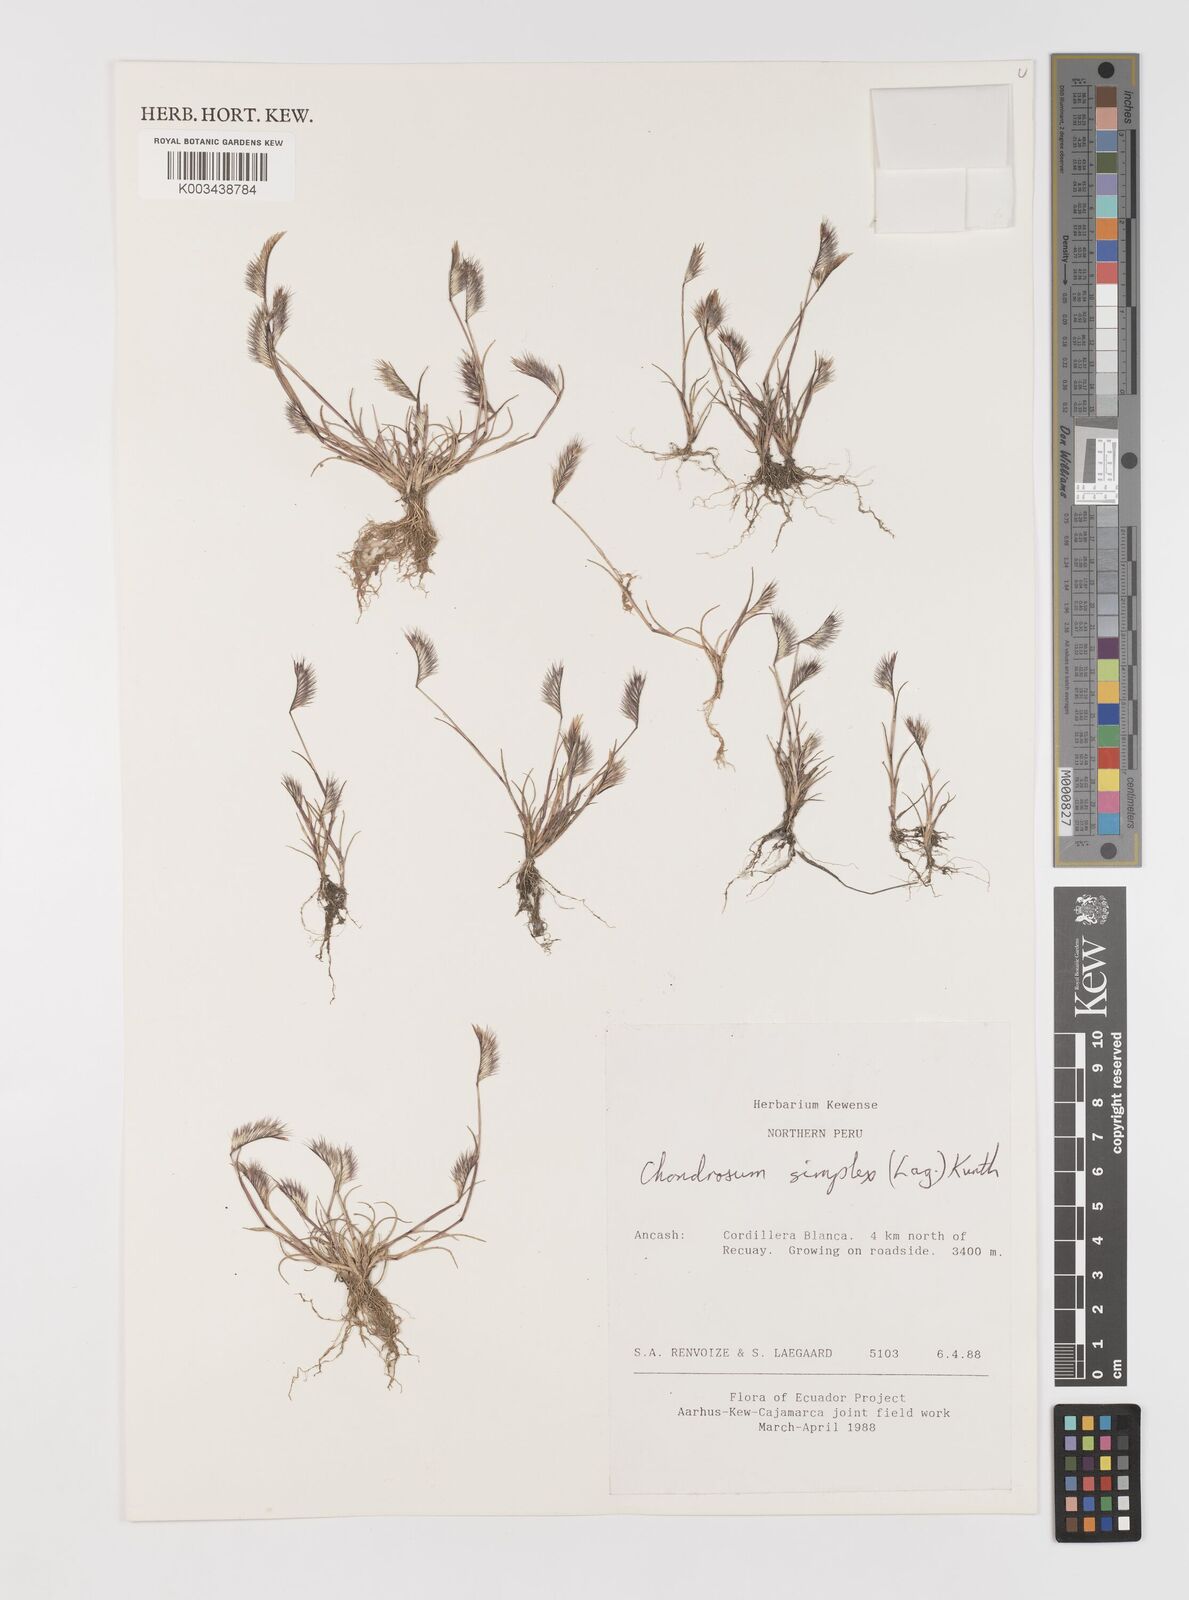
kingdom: Plantae
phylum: Tracheophyta
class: Liliopsida
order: Poales
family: Poaceae
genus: Bouteloua
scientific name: Bouteloua simplex
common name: Mat grama
